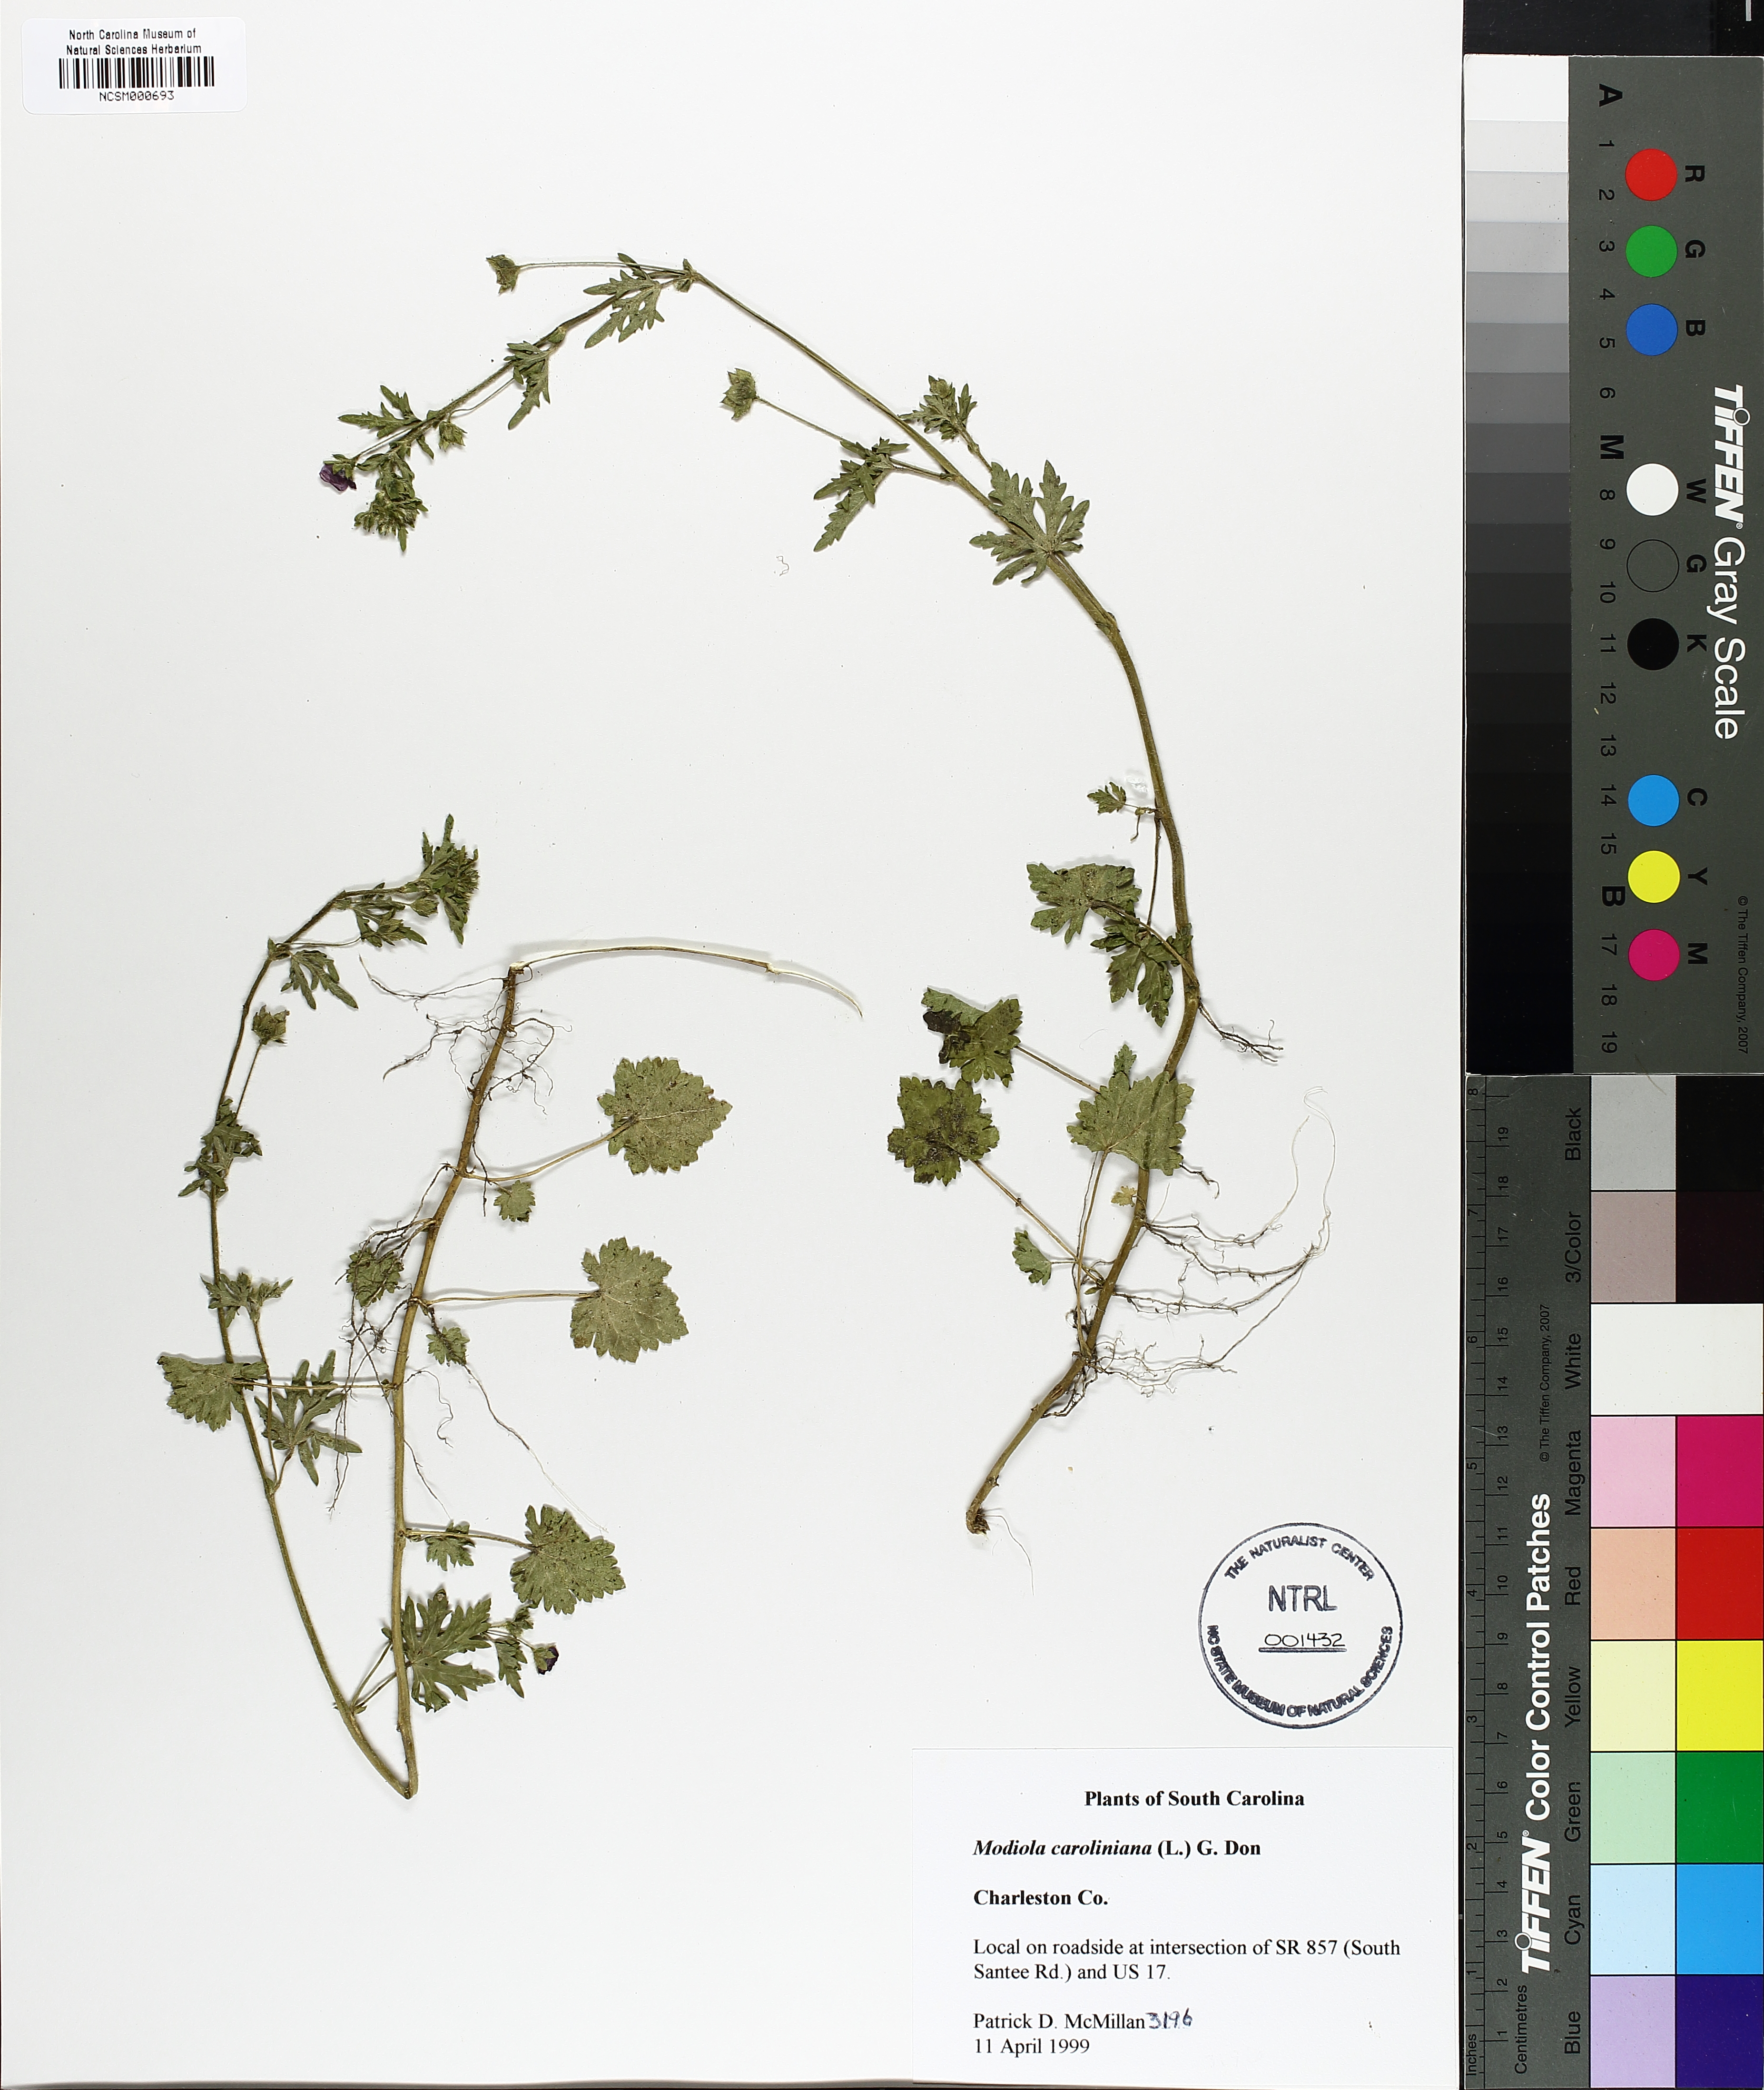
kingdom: Plantae
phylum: Tracheophyta
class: Magnoliopsida
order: Malvales
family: Malvaceae
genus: Modiola
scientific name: Modiola caroliniana
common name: Carolina bristlemallow
